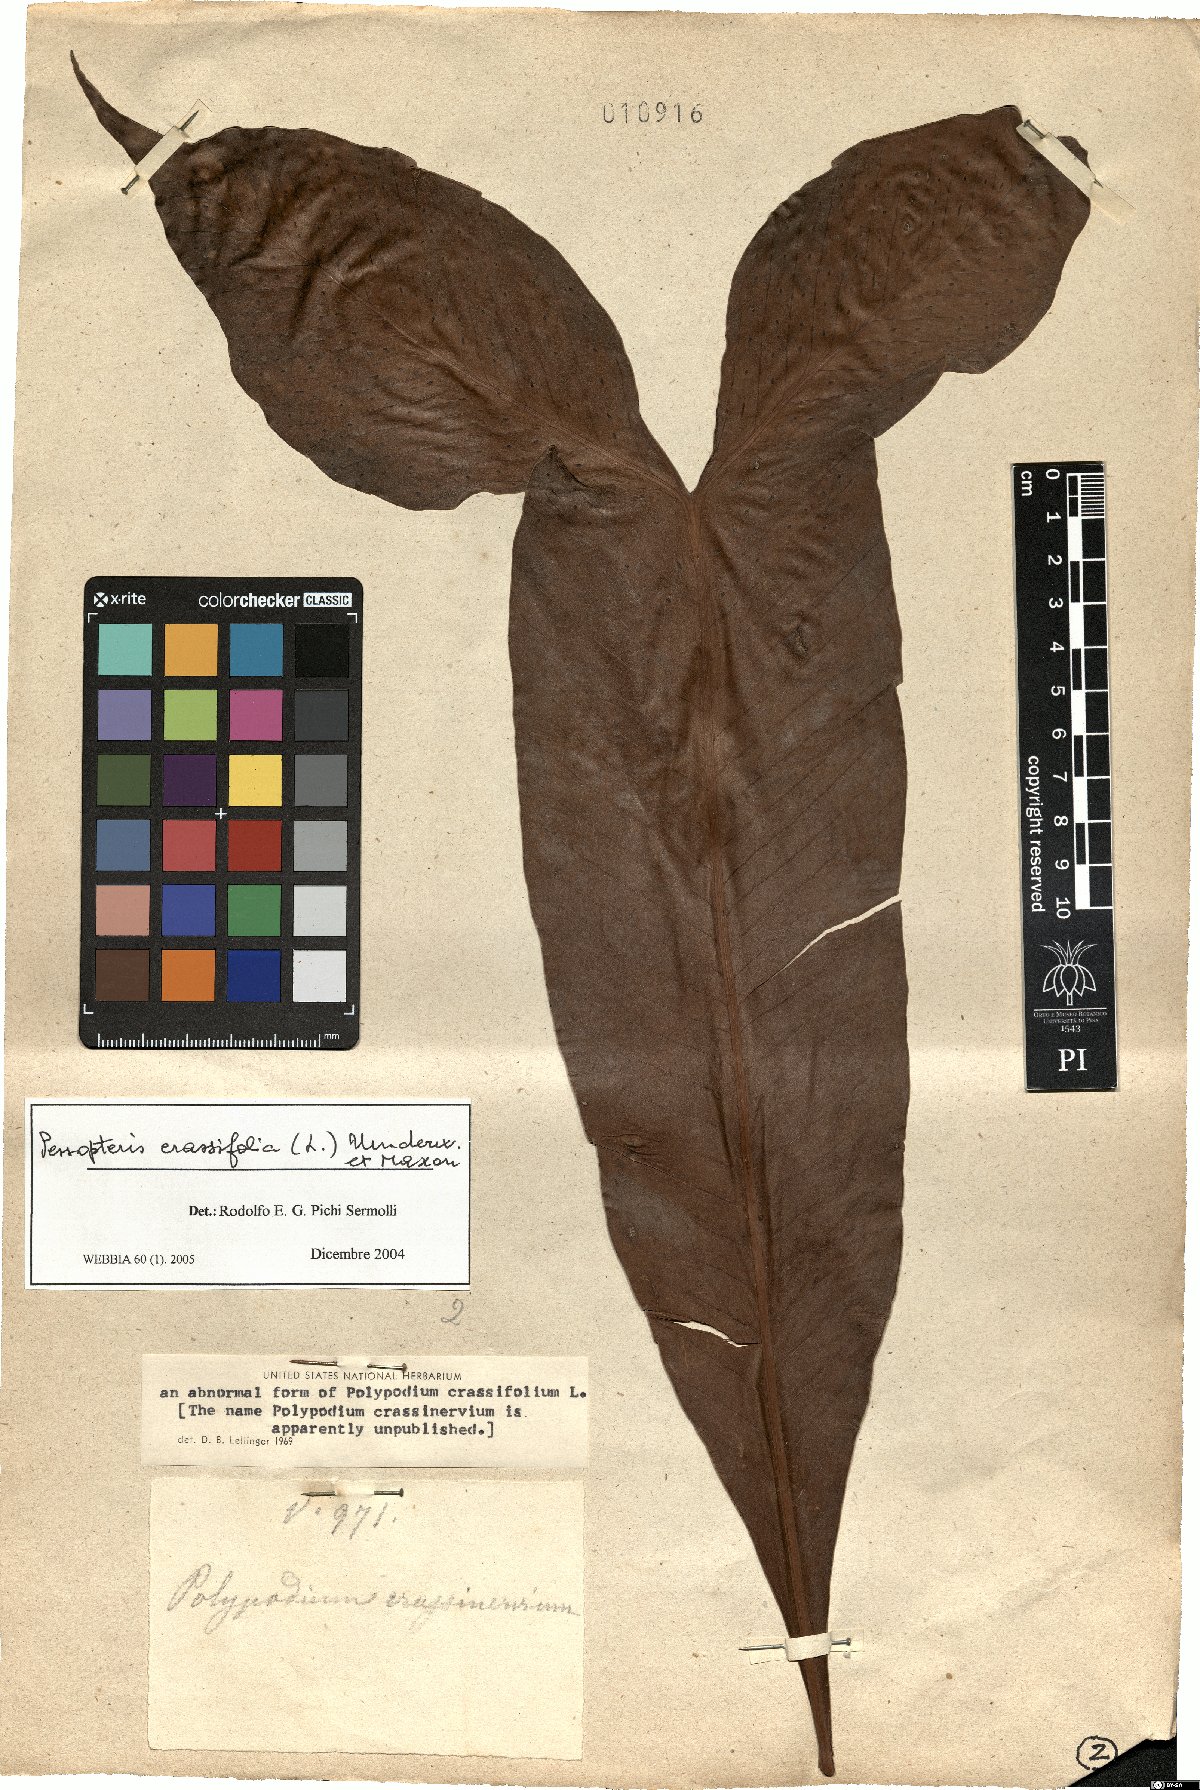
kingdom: Plantae
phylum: Tracheophyta
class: Polypodiopsida
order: Polypodiales
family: Polypodiaceae
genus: Niphidium
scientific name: Niphidium crassifolium
